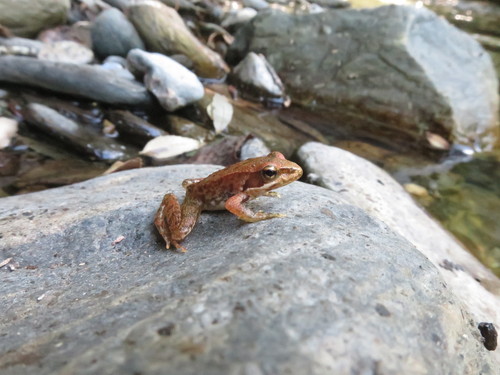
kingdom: Animalia
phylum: Chordata
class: Amphibia
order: Anura
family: Ranidae
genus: Rana
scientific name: Rana iberica
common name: Iberian frog
